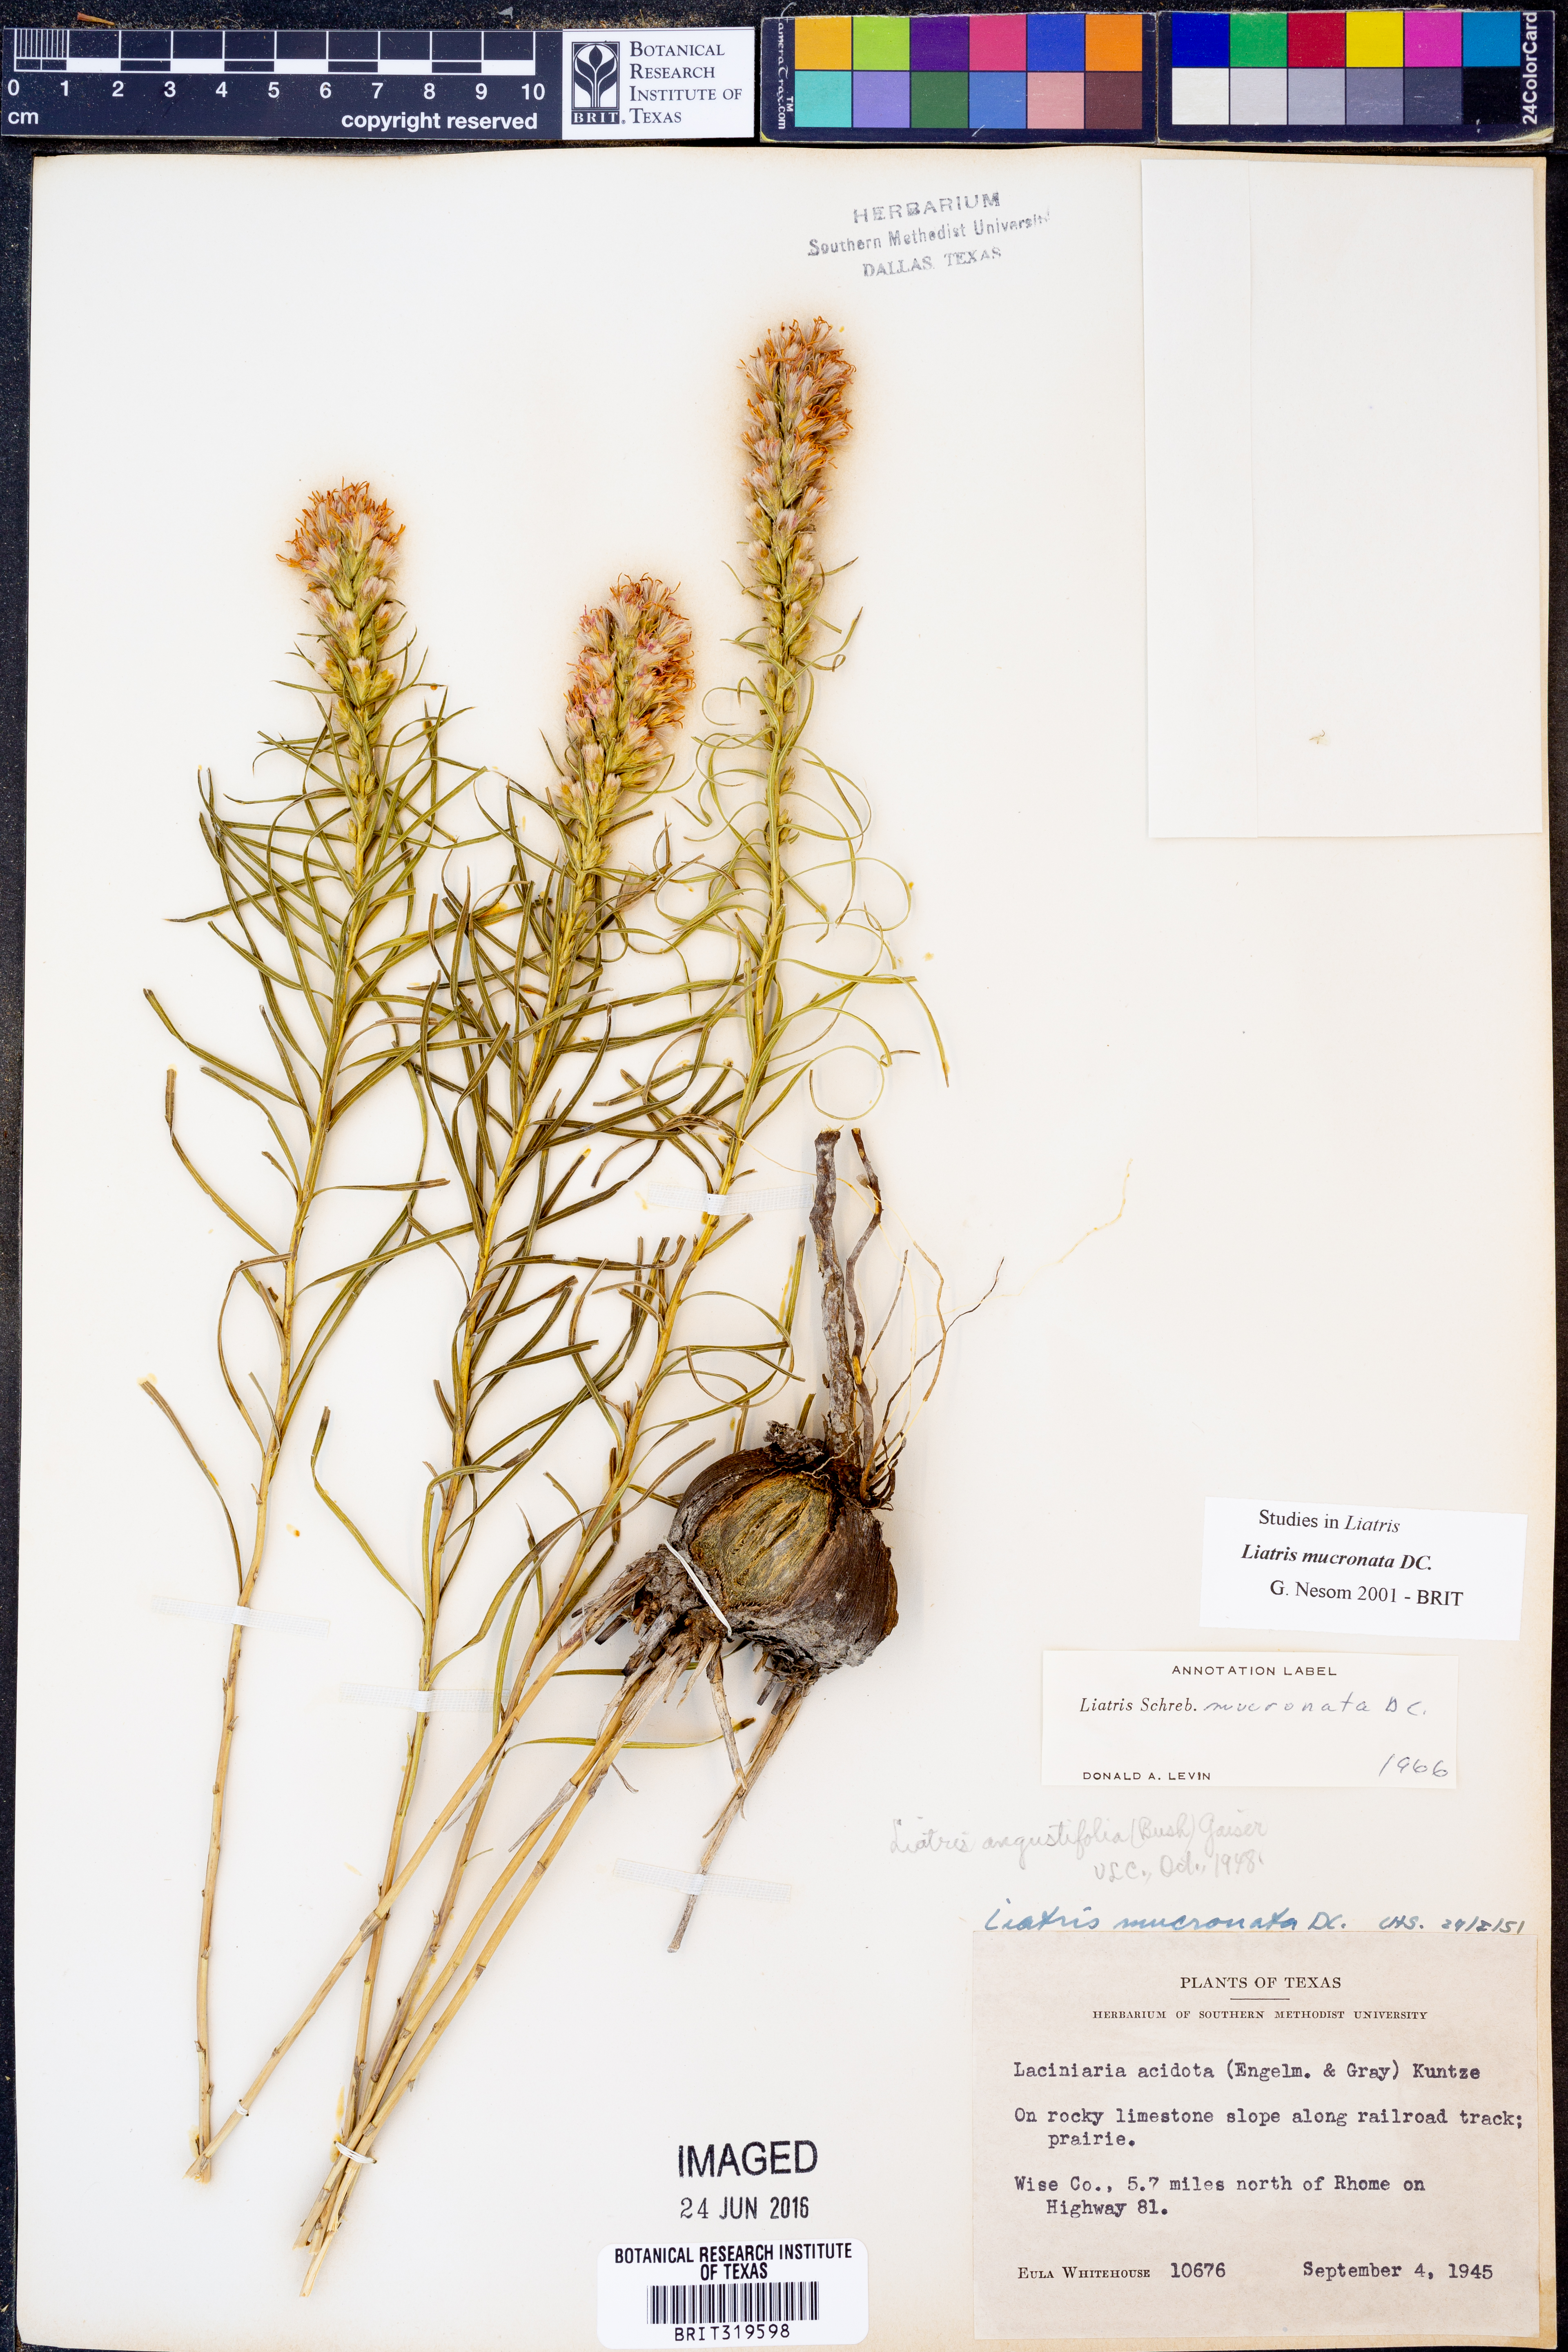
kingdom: Plantae
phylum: Tracheophyta
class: Magnoliopsida
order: Asterales
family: Asteraceae
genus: Liatris
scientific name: Liatris mucronata
